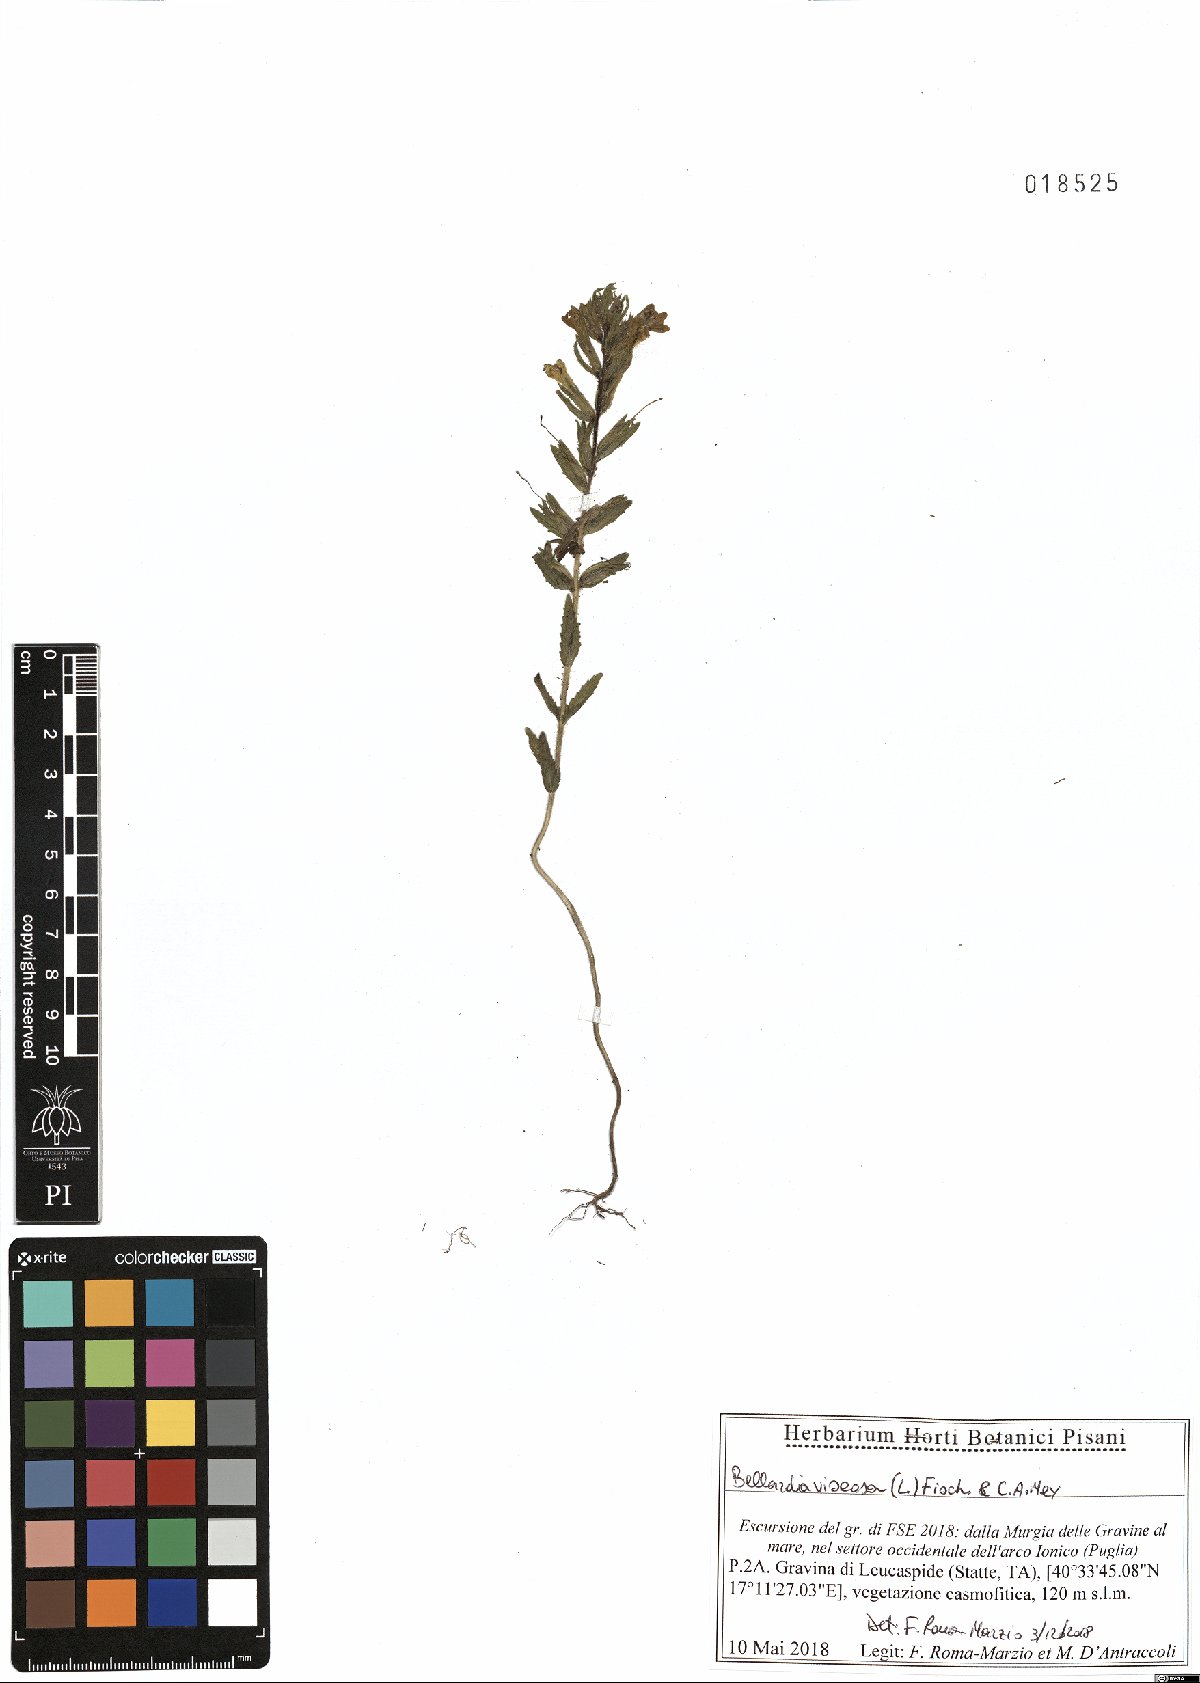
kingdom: Plantae
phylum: Tracheophyta
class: Magnoliopsida
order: Lamiales
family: Orobanchaceae
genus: Bellardia
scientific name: Bellardia viscosa
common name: Sticky parentucellia
